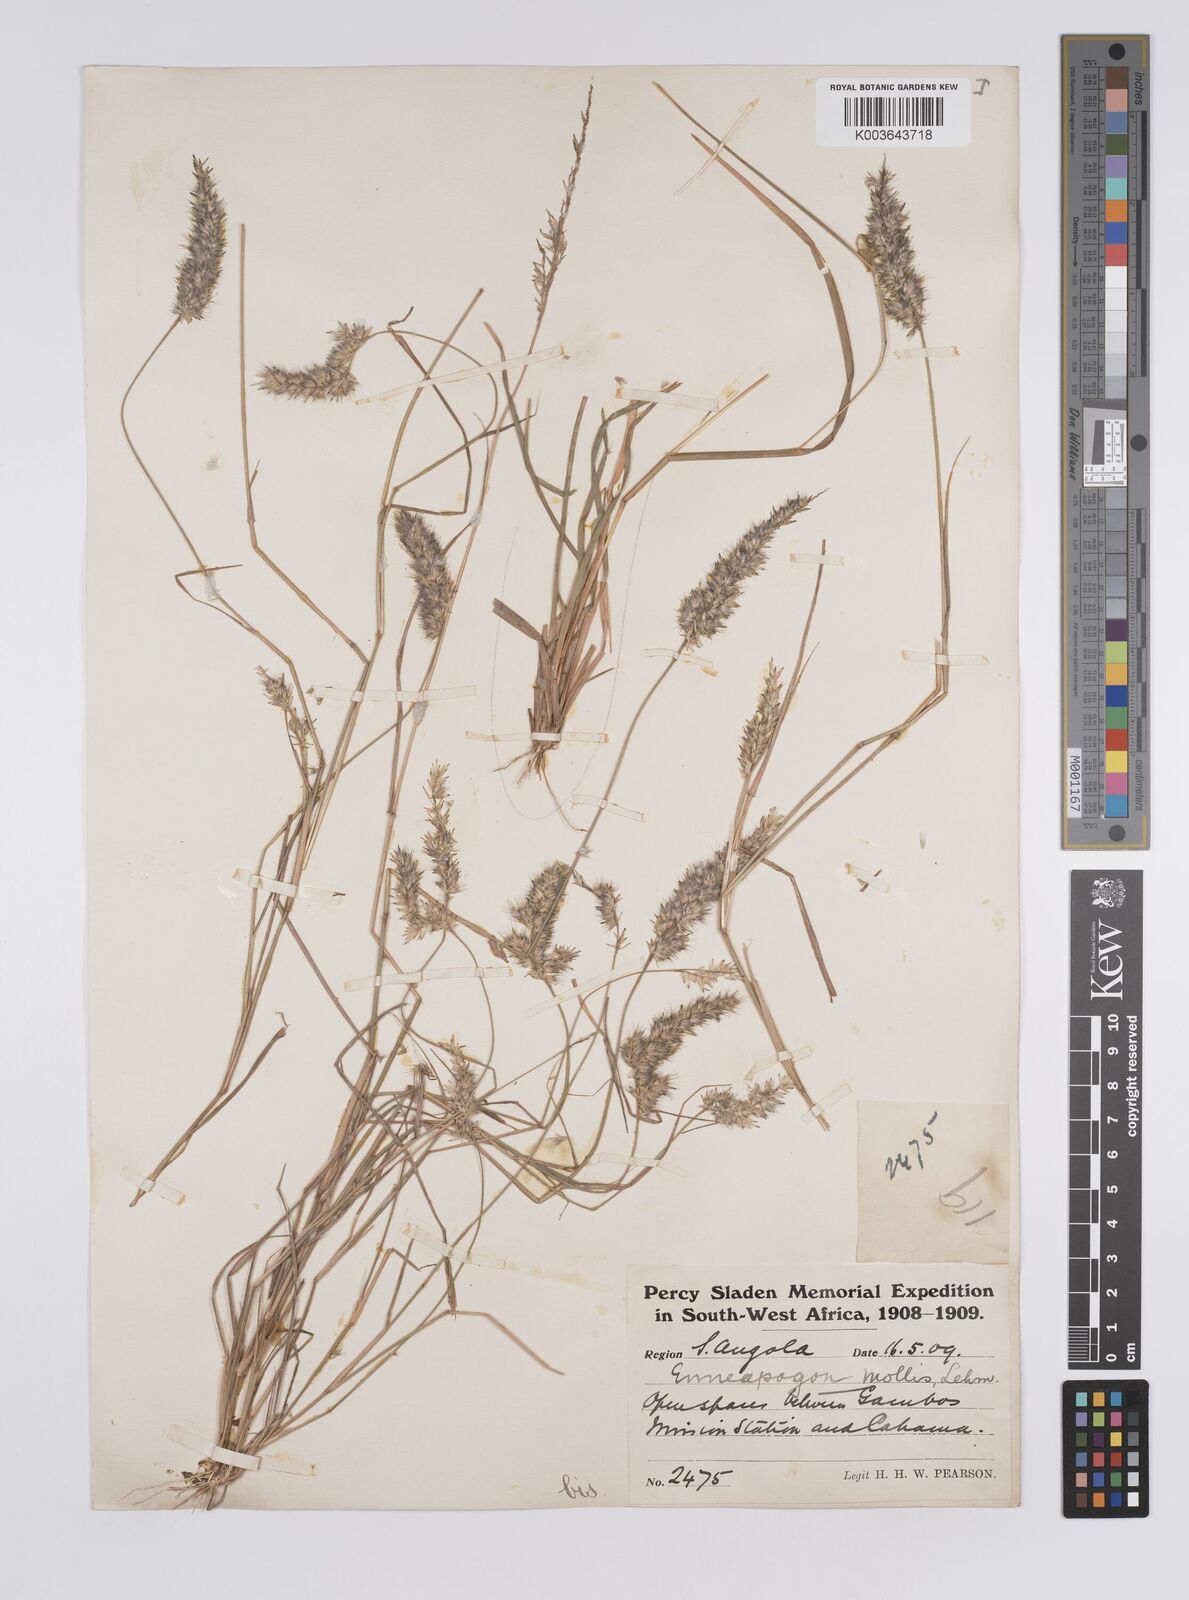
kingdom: Plantae
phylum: Tracheophyta
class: Liliopsida
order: Poales
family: Poaceae
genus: Enneapogon
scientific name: Enneapogon cenchroides
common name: Soft feather pappusgrass
